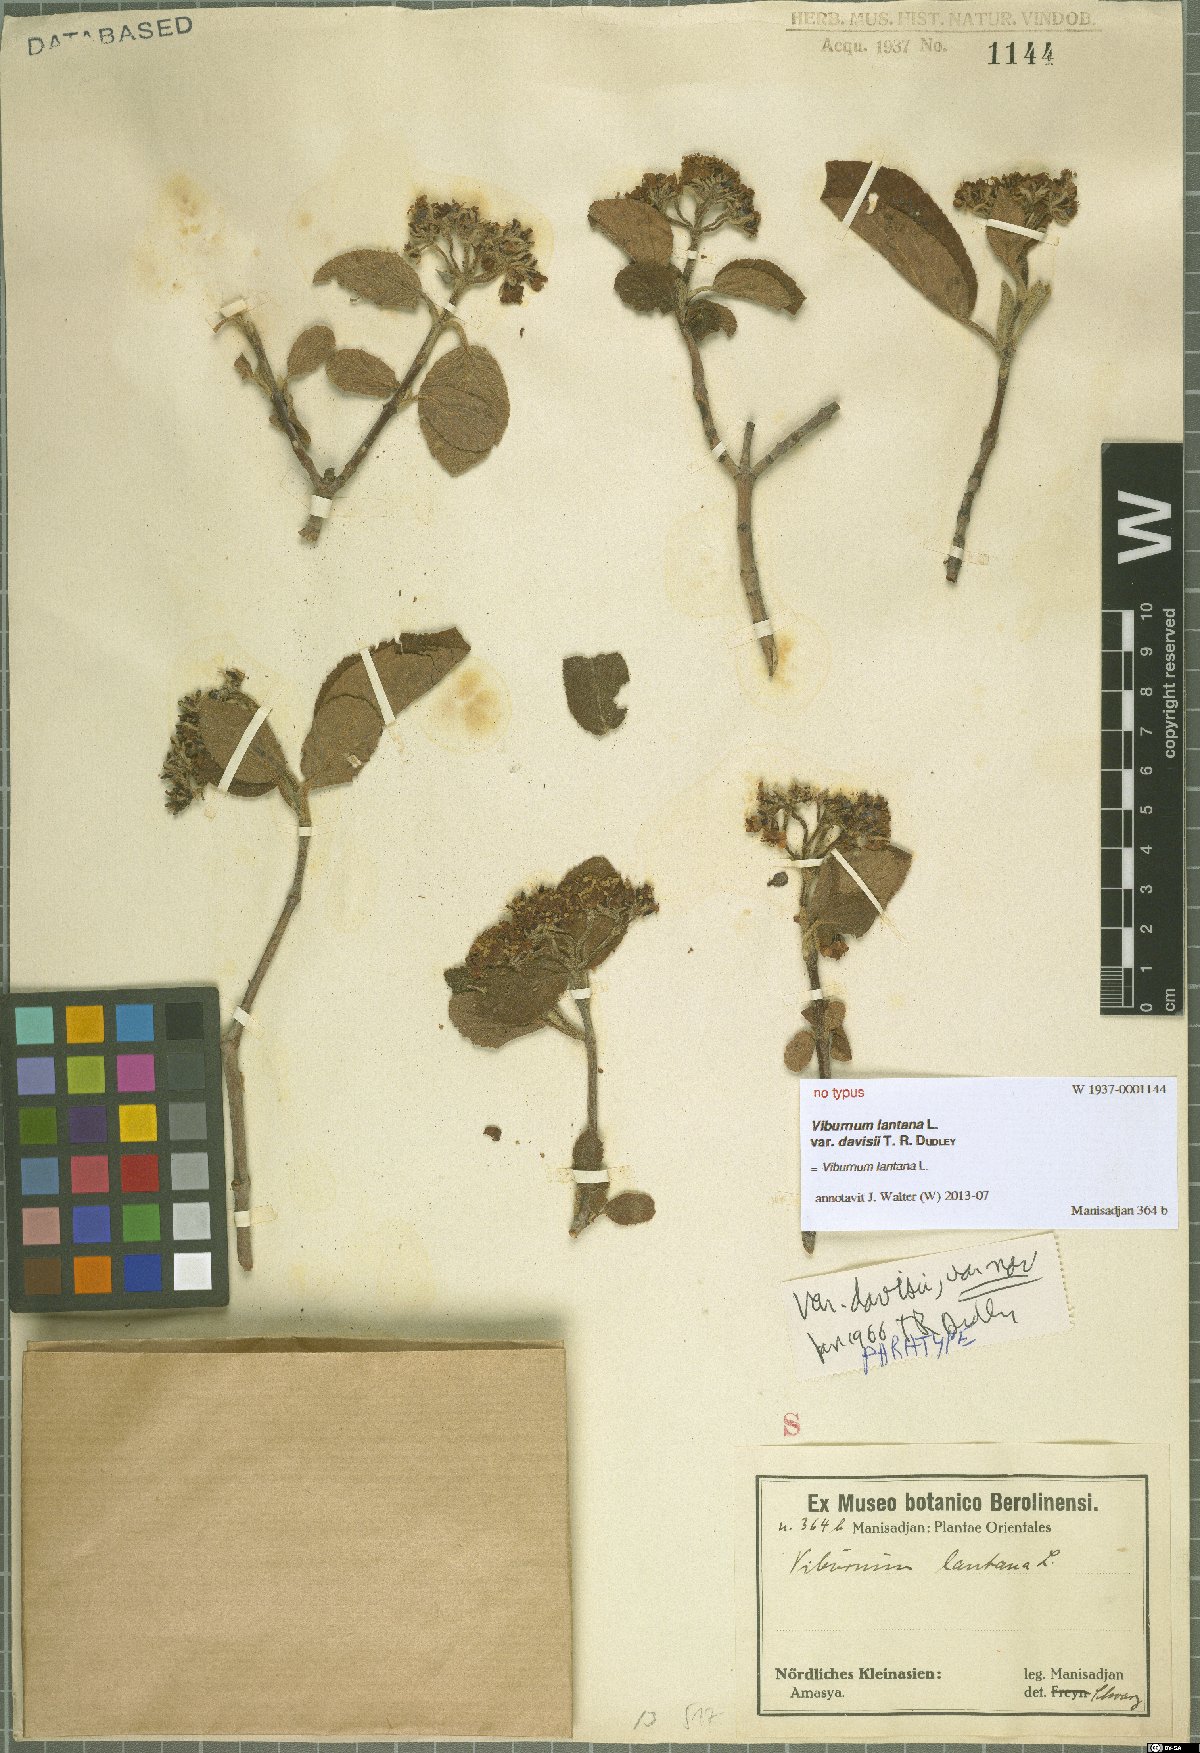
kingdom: Plantae
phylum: Tracheophyta
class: Magnoliopsida
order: Dipsacales
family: Viburnaceae
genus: Viburnum
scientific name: Viburnum lantana
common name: Wayfaring tree
